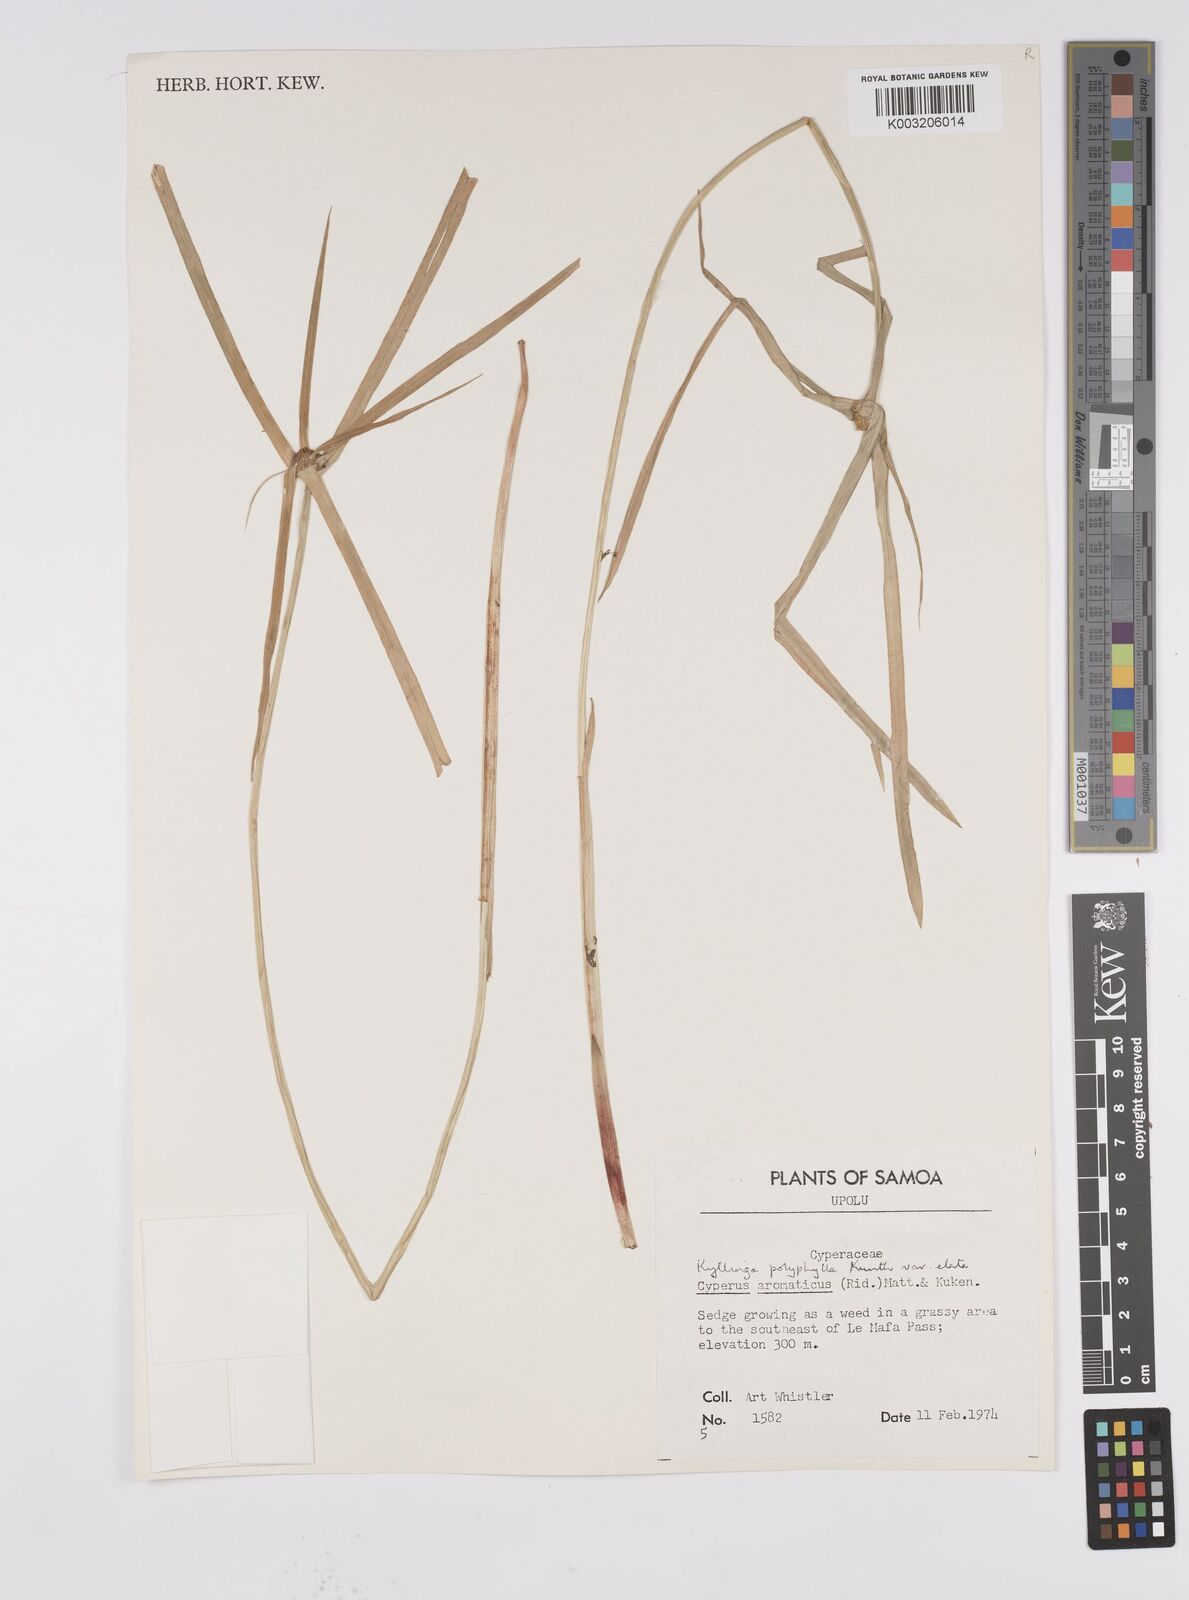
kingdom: Plantae
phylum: Tracheophyta
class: Liliopsida
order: Poales
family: Cyperaceae
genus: Cyperus
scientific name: Cyperus
